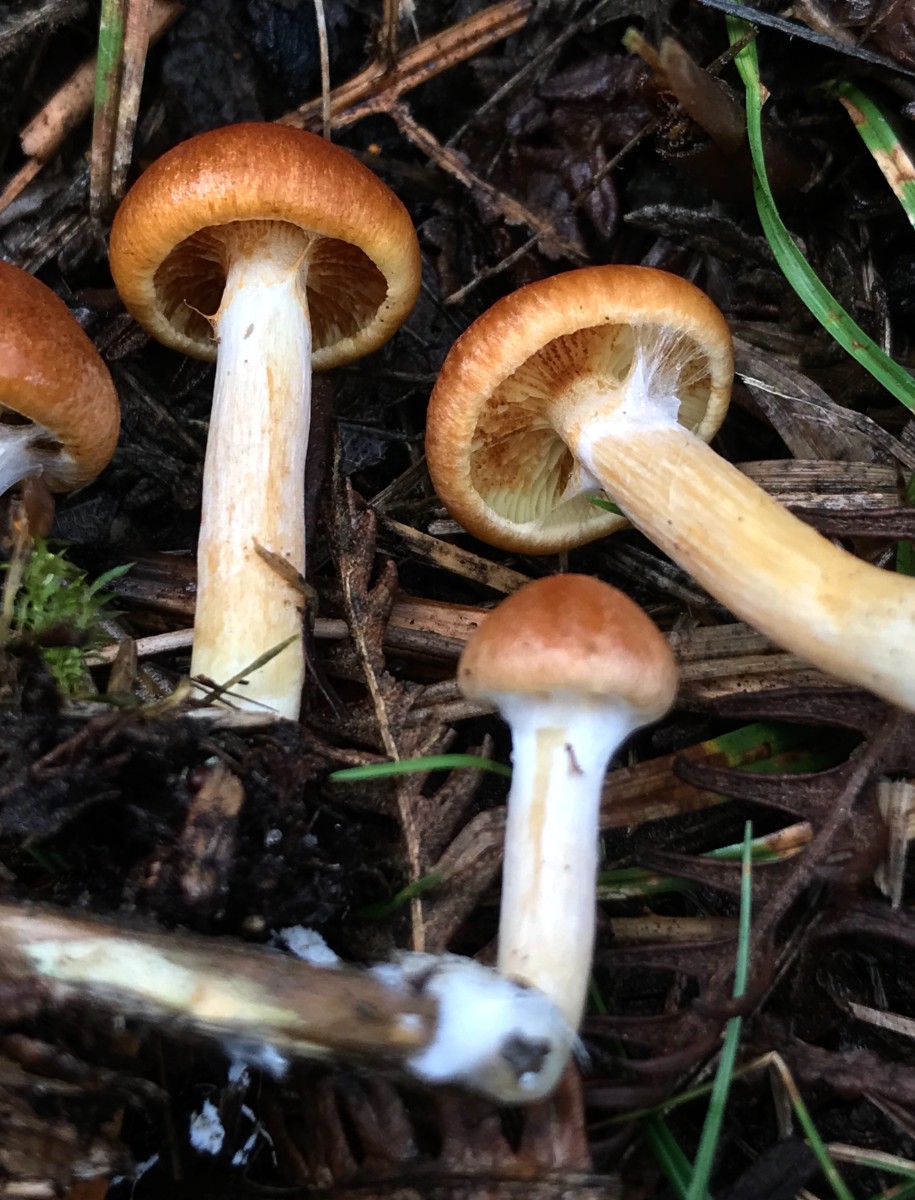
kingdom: Fungi
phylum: Basidiomycota
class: Agaricomycetes
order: Agaricales
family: Hymenogastraceae
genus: Gymnopilus
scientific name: Gymnopilus penetrans
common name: plettet flammehat
